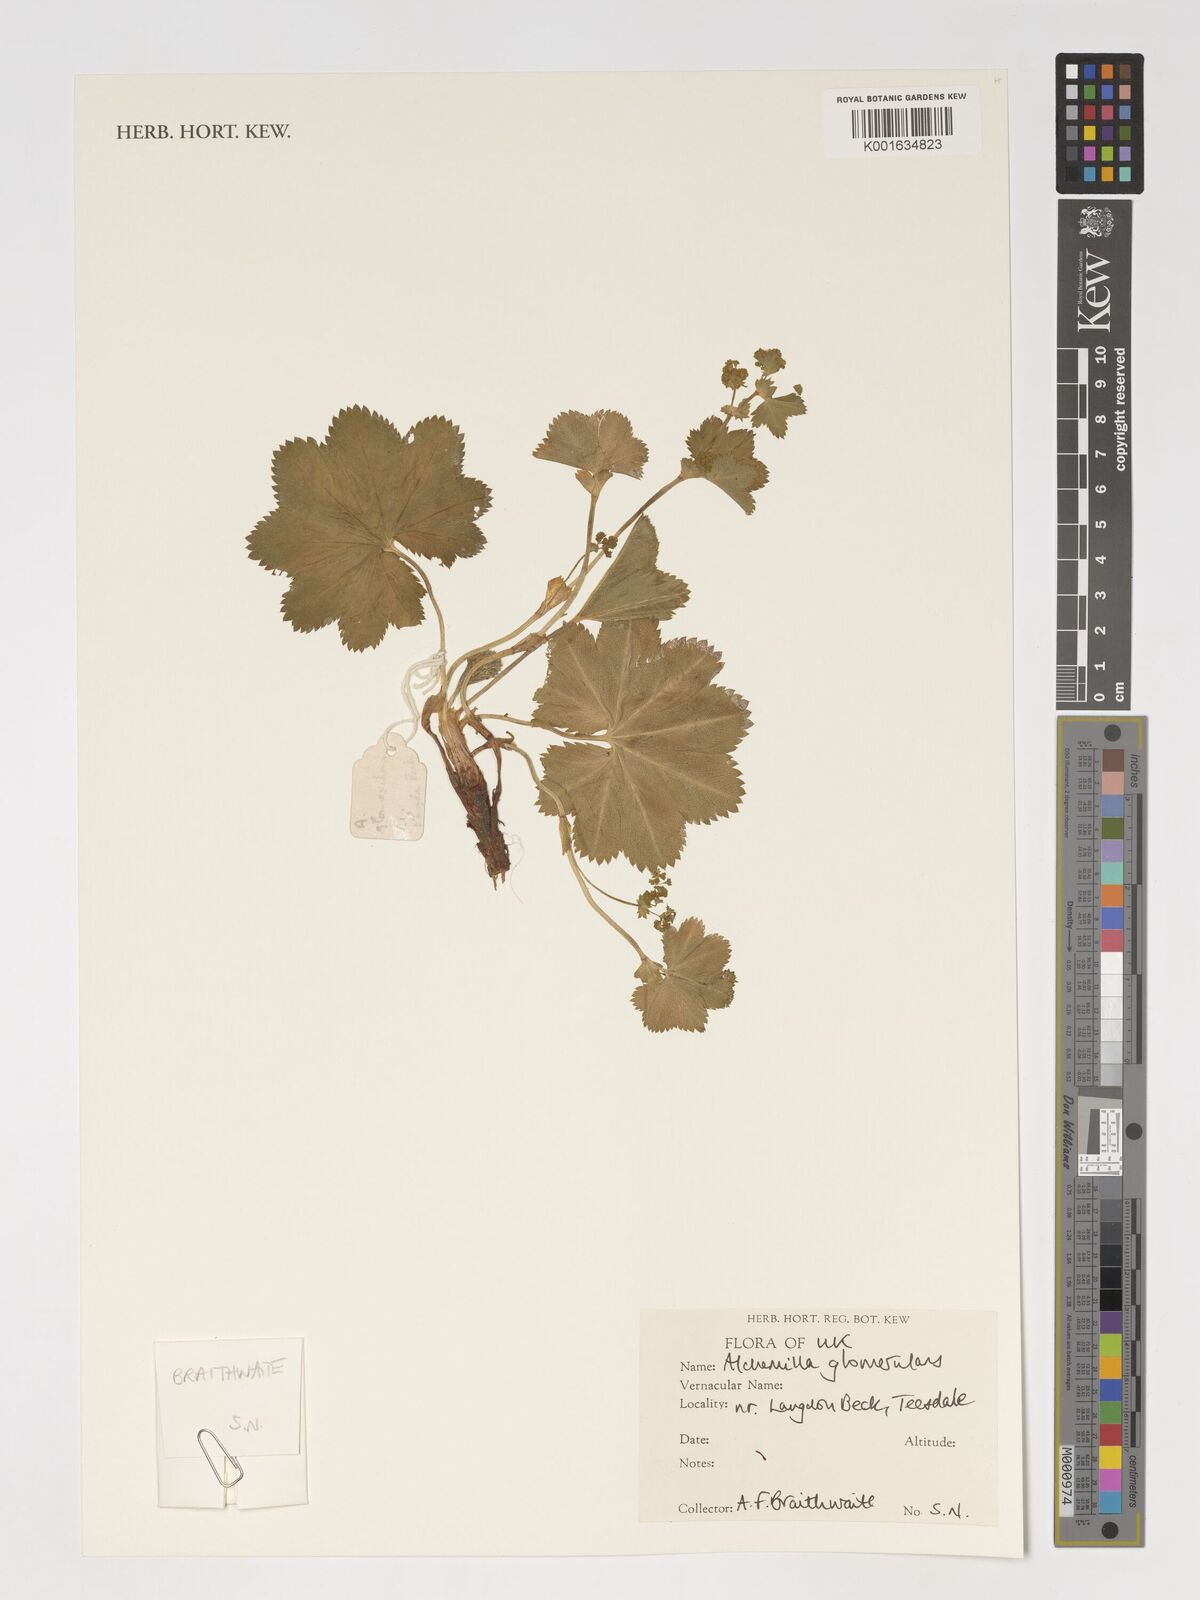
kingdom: Plantae
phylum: Tracheophyta
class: Magnoliopsida
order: Rosales
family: Rosaceae
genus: Alchemilla
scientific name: Alchemilla glomerulans
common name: Clustered lady's mantle
